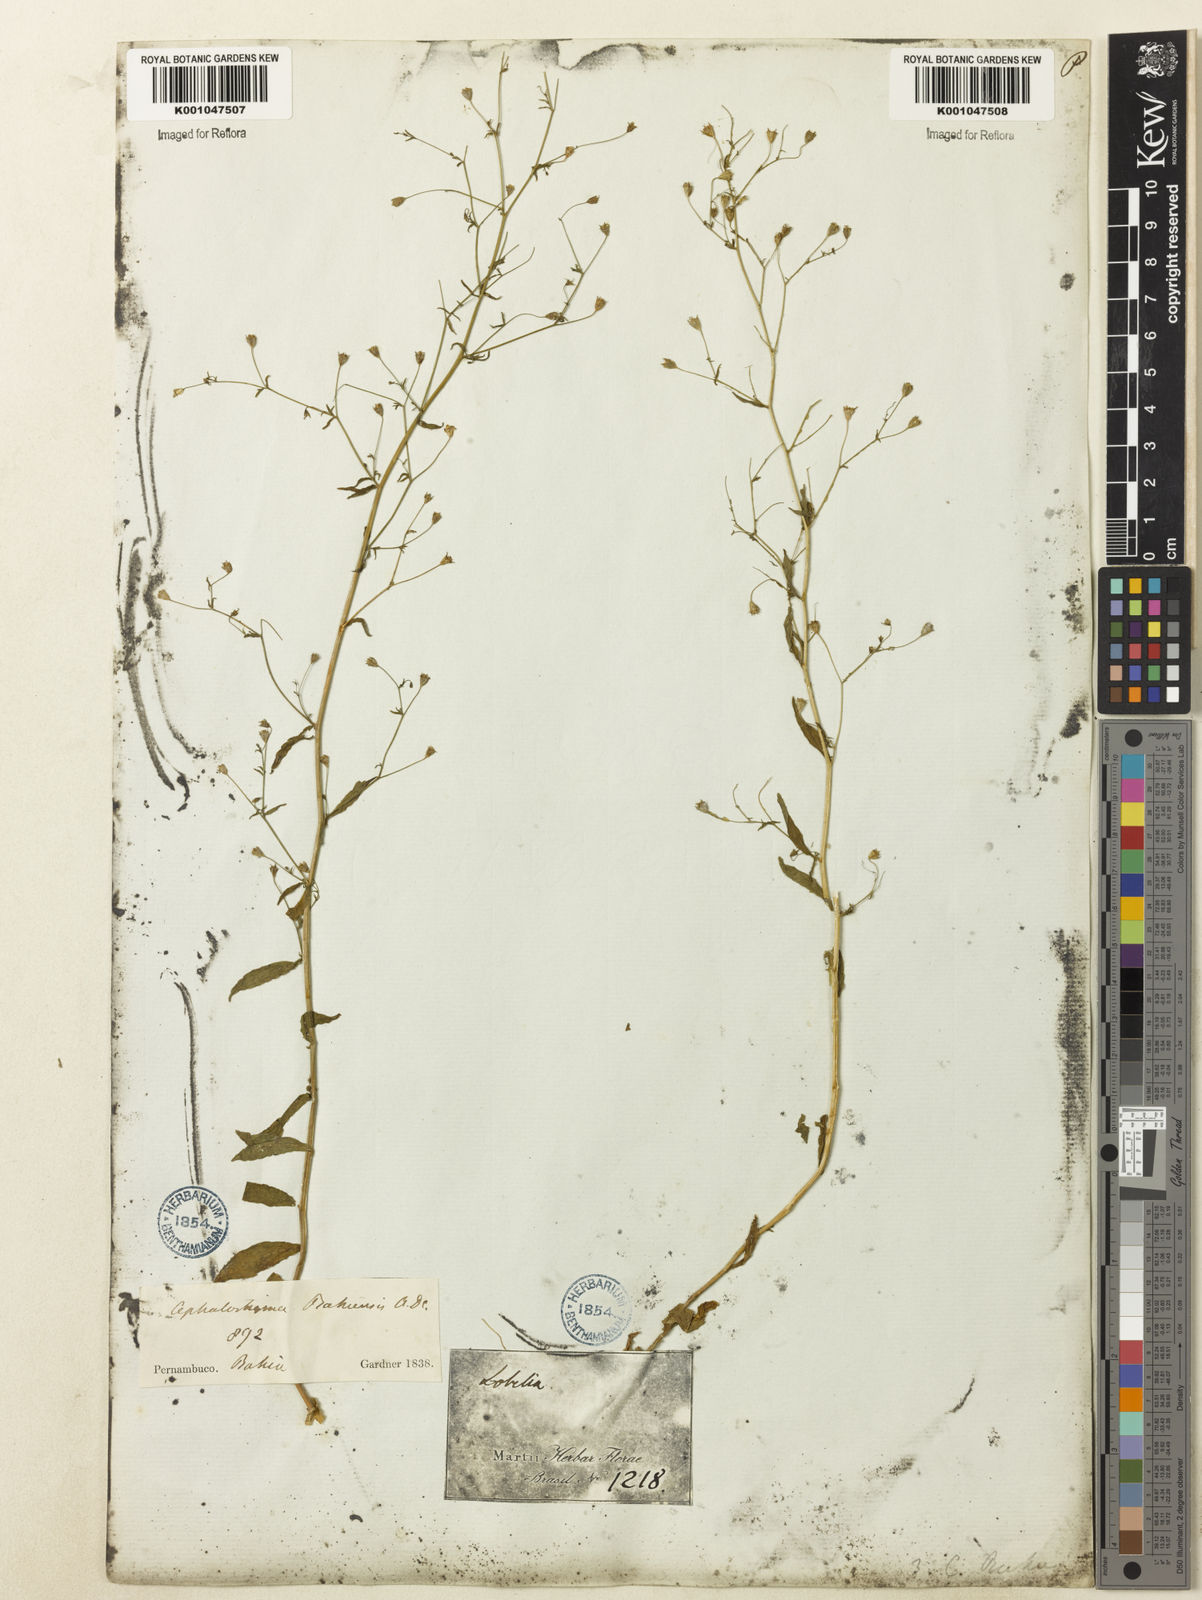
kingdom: Plantae
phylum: Tracheophyta
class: Magnoliopsida
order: Asterales
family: Campanulaceae
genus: Wahlenbergia
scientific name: Wahlenbergia perrottetii
